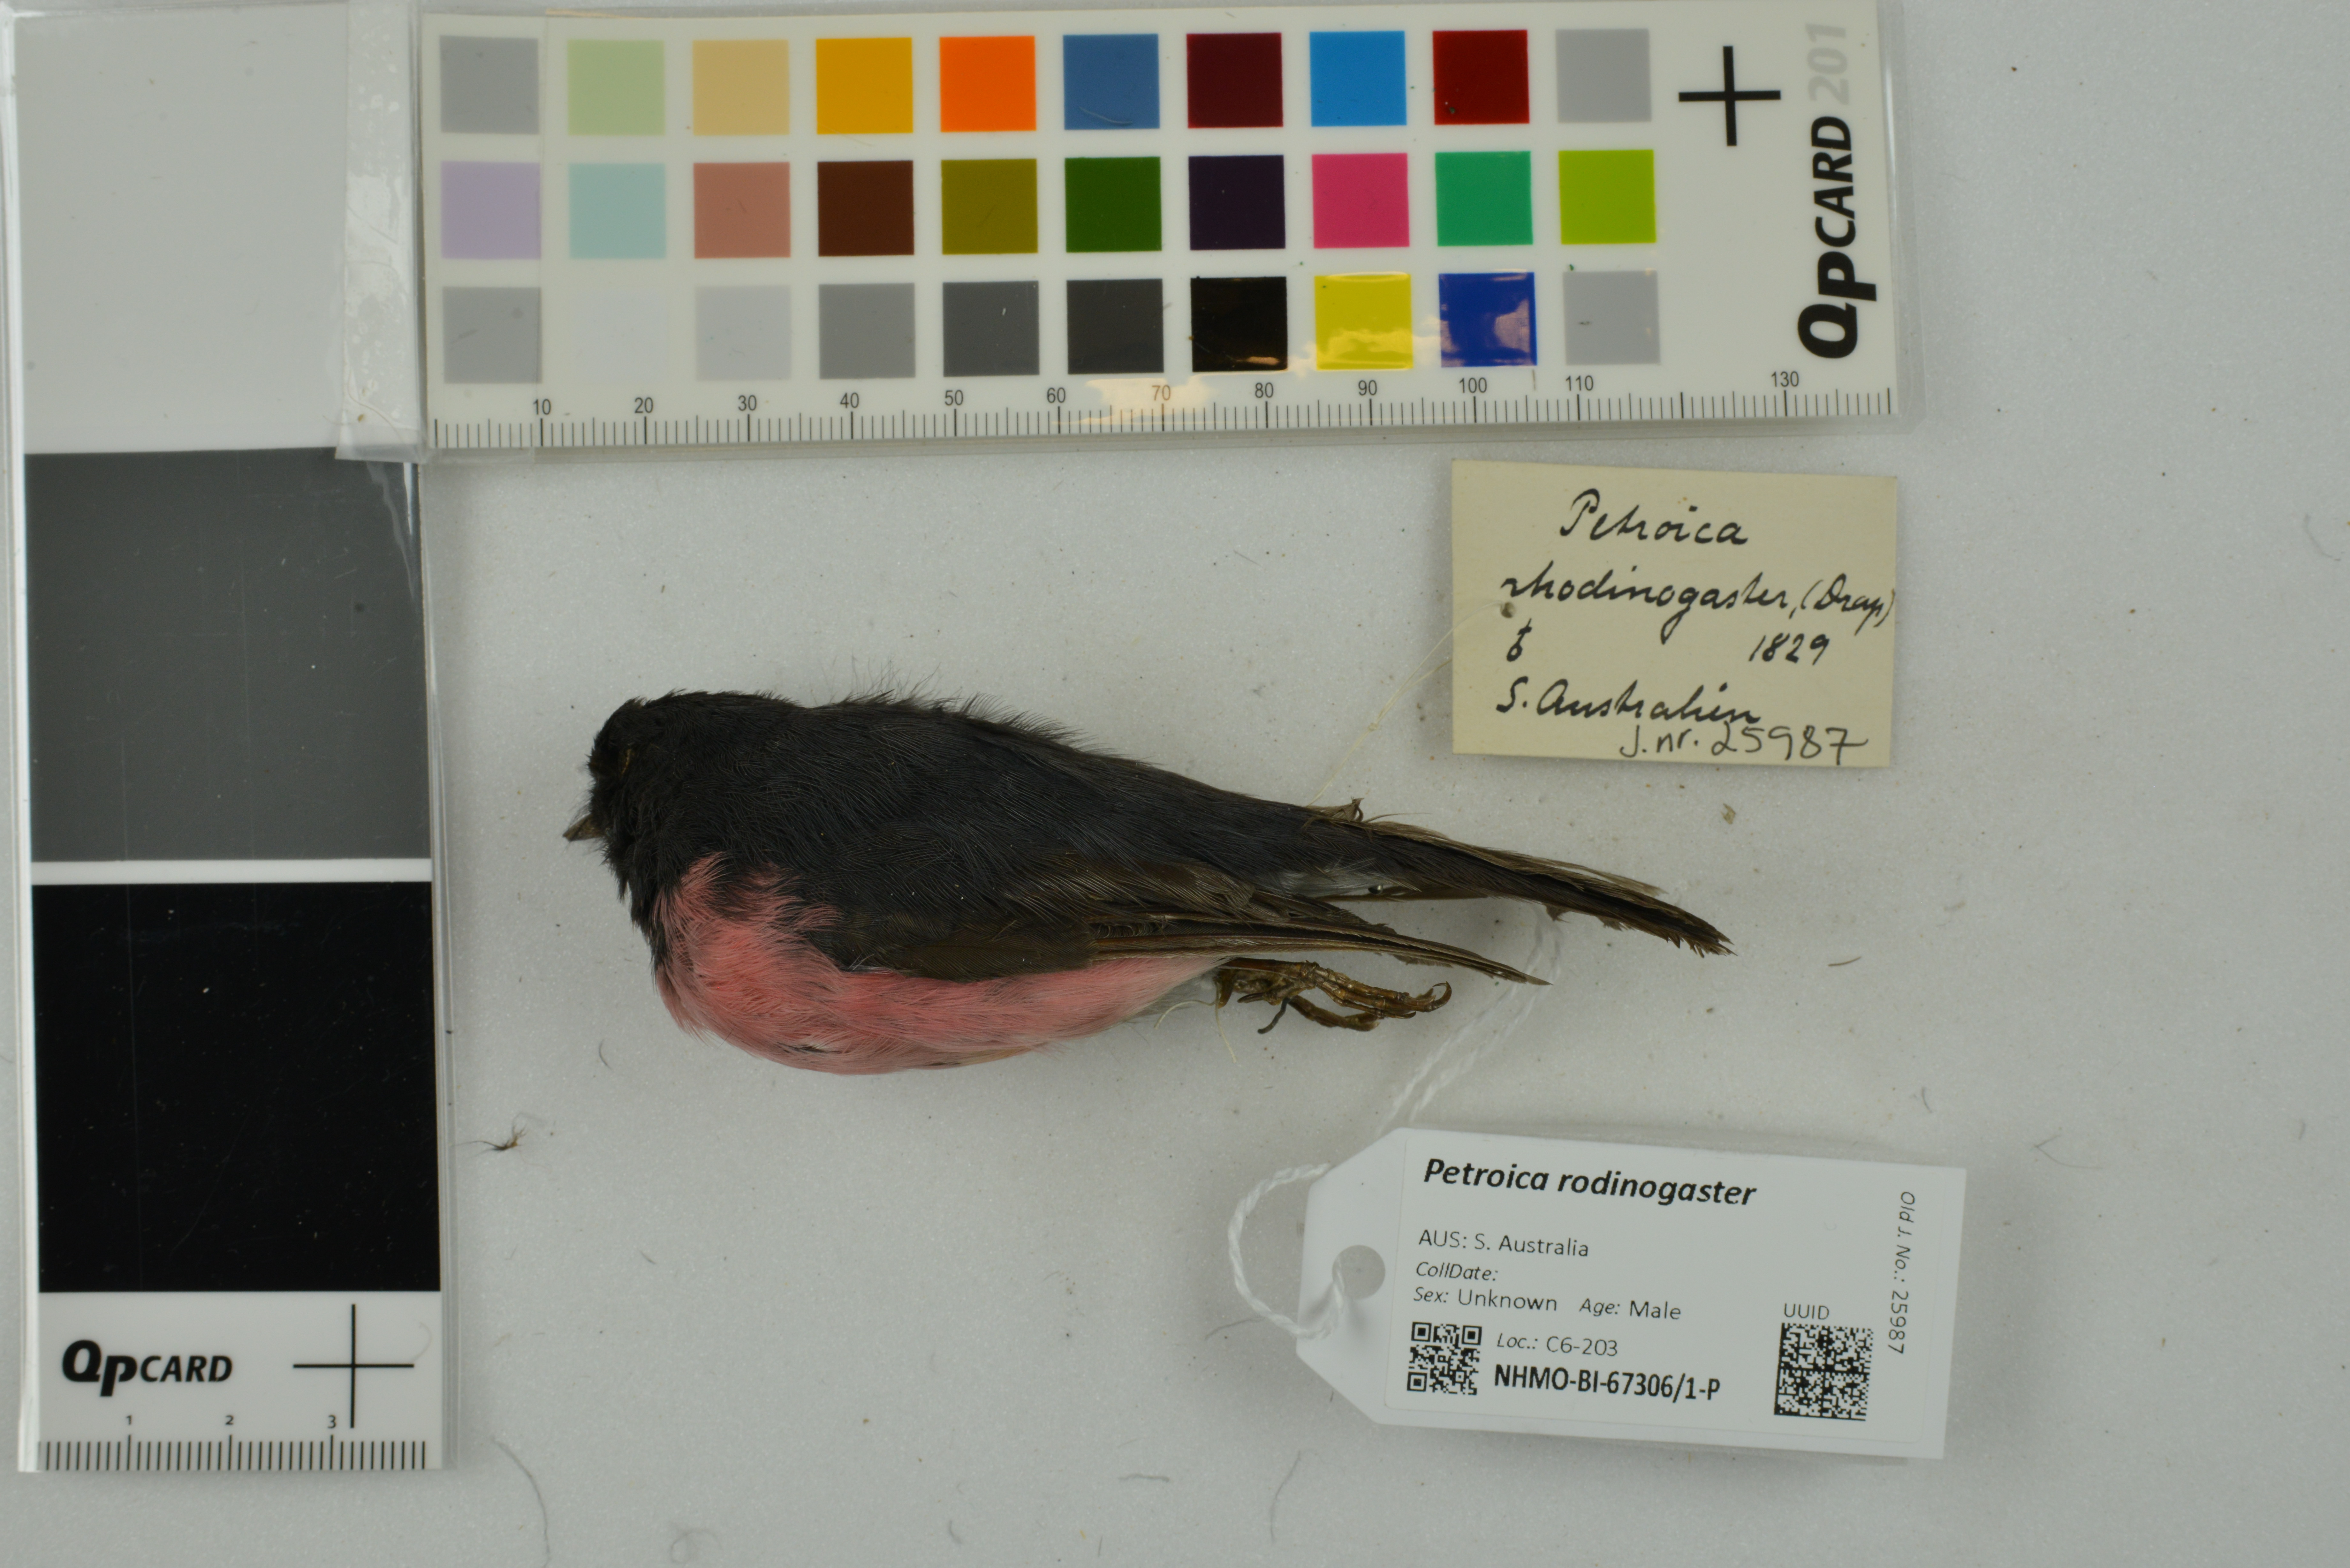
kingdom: Animalia
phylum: Chordata
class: Aves
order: Passeriformes
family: Petroicidae
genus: Petroica
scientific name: Petroica rodinogaster
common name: Pink robin
